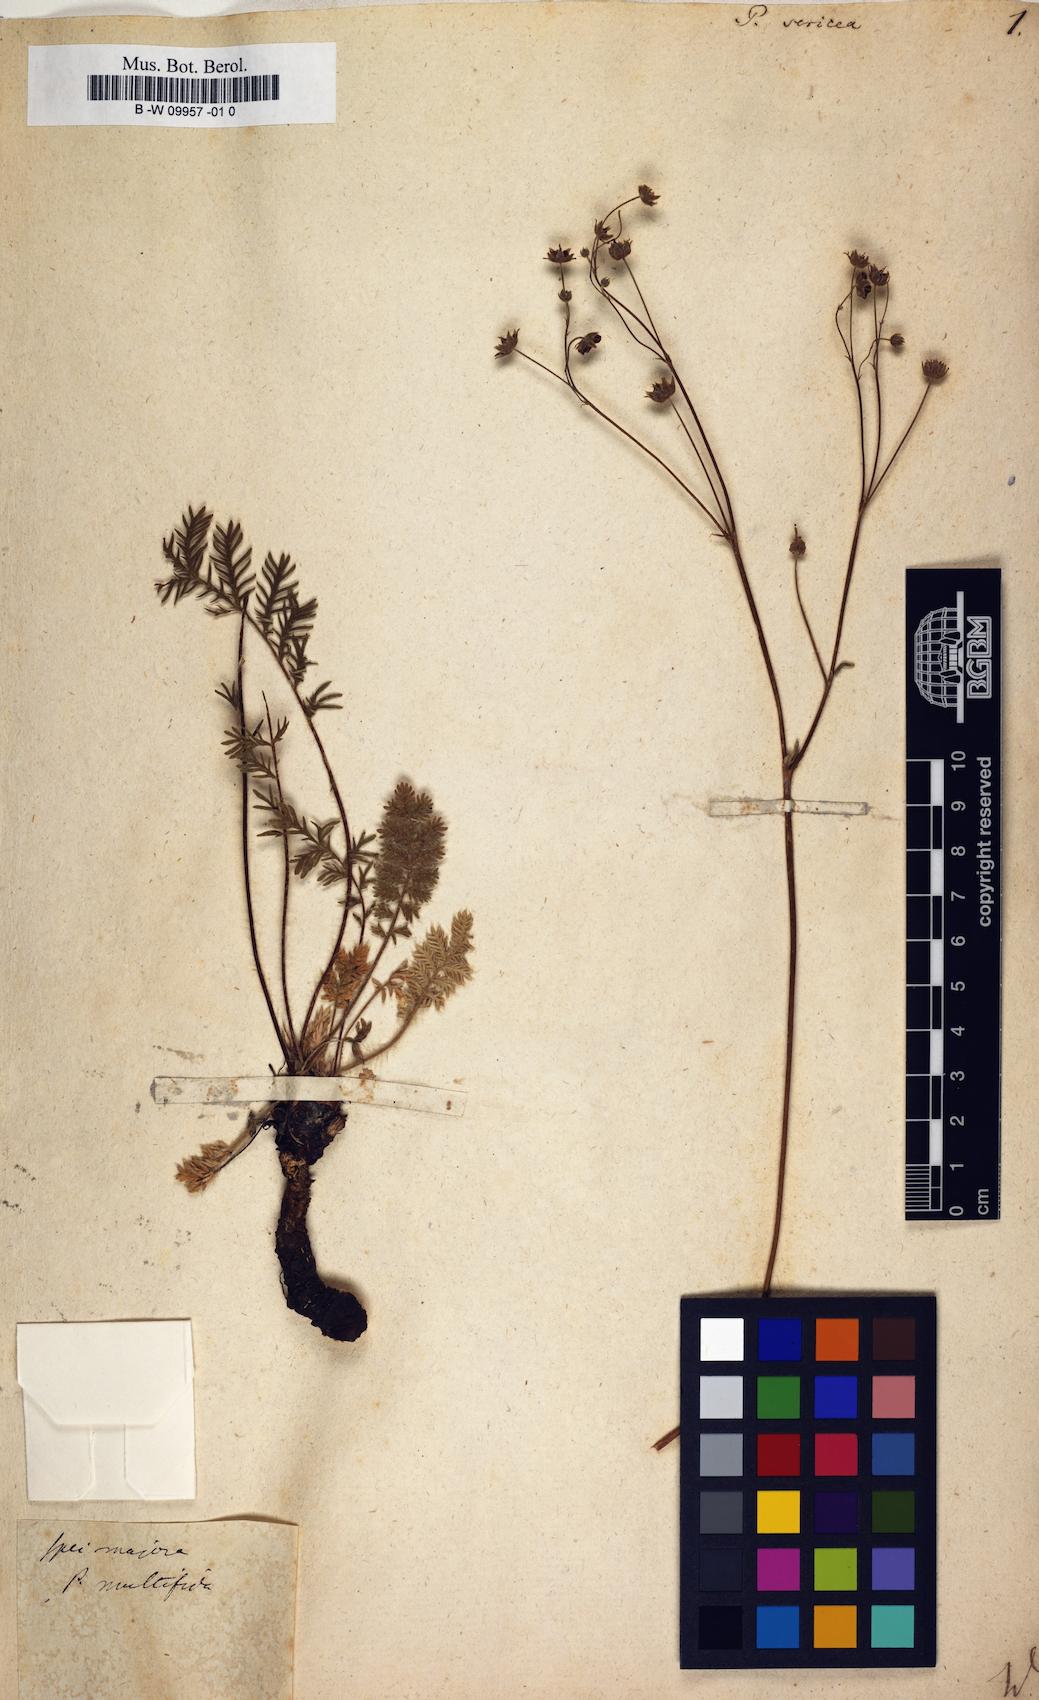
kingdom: Plantae
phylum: Tracheophyta
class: Magnoliopsida
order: Rosales
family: Rosaceae
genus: Potentilla
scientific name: Potentilla sericea
